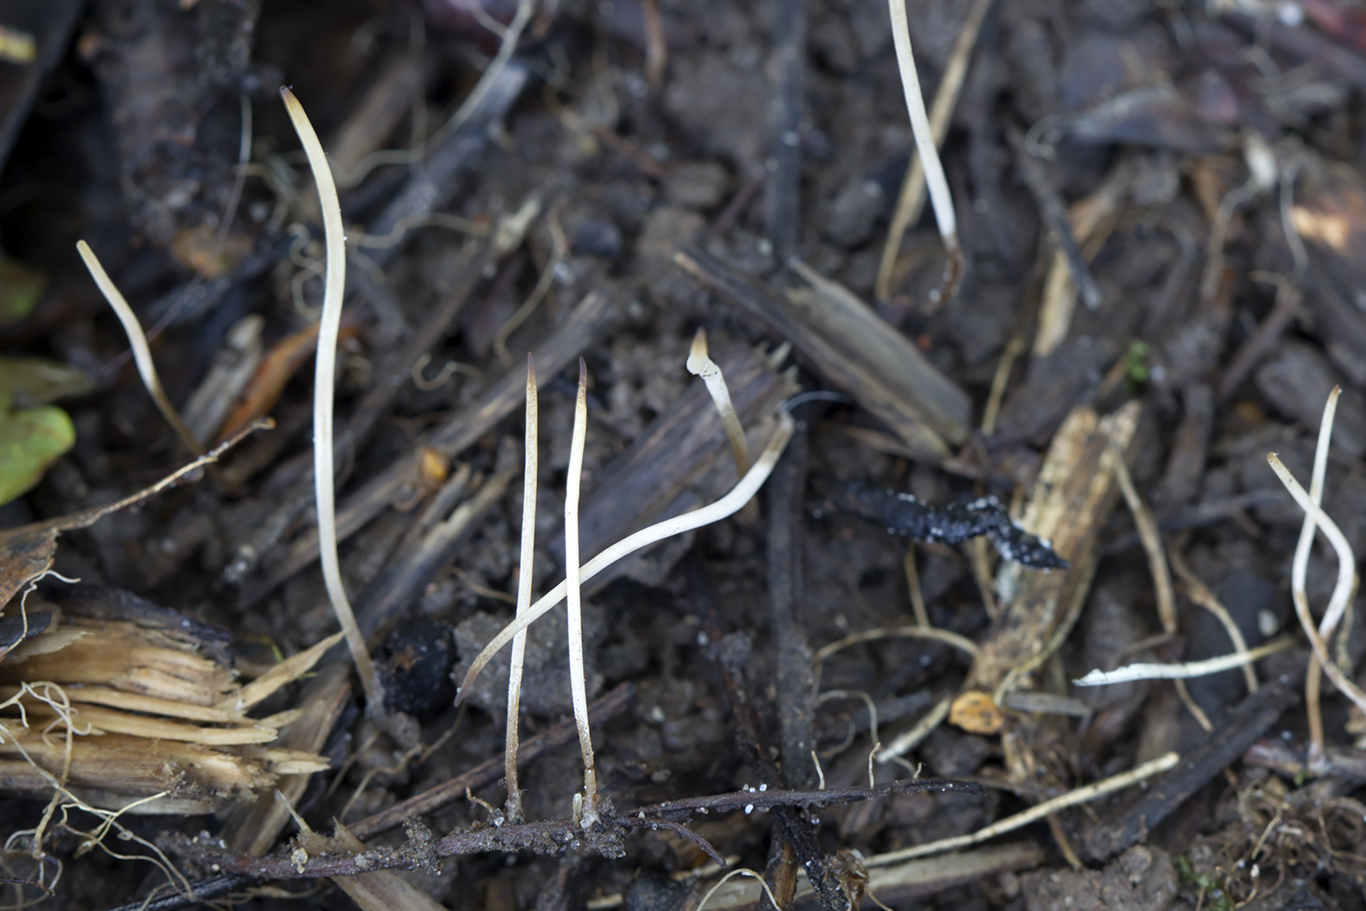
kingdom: Fungi
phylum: Basidiomycota
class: Agaricomycetes
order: Agaricales
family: Typhulaceae
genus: Typhula
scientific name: Typhula juncea
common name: trådagtig rørkølle
